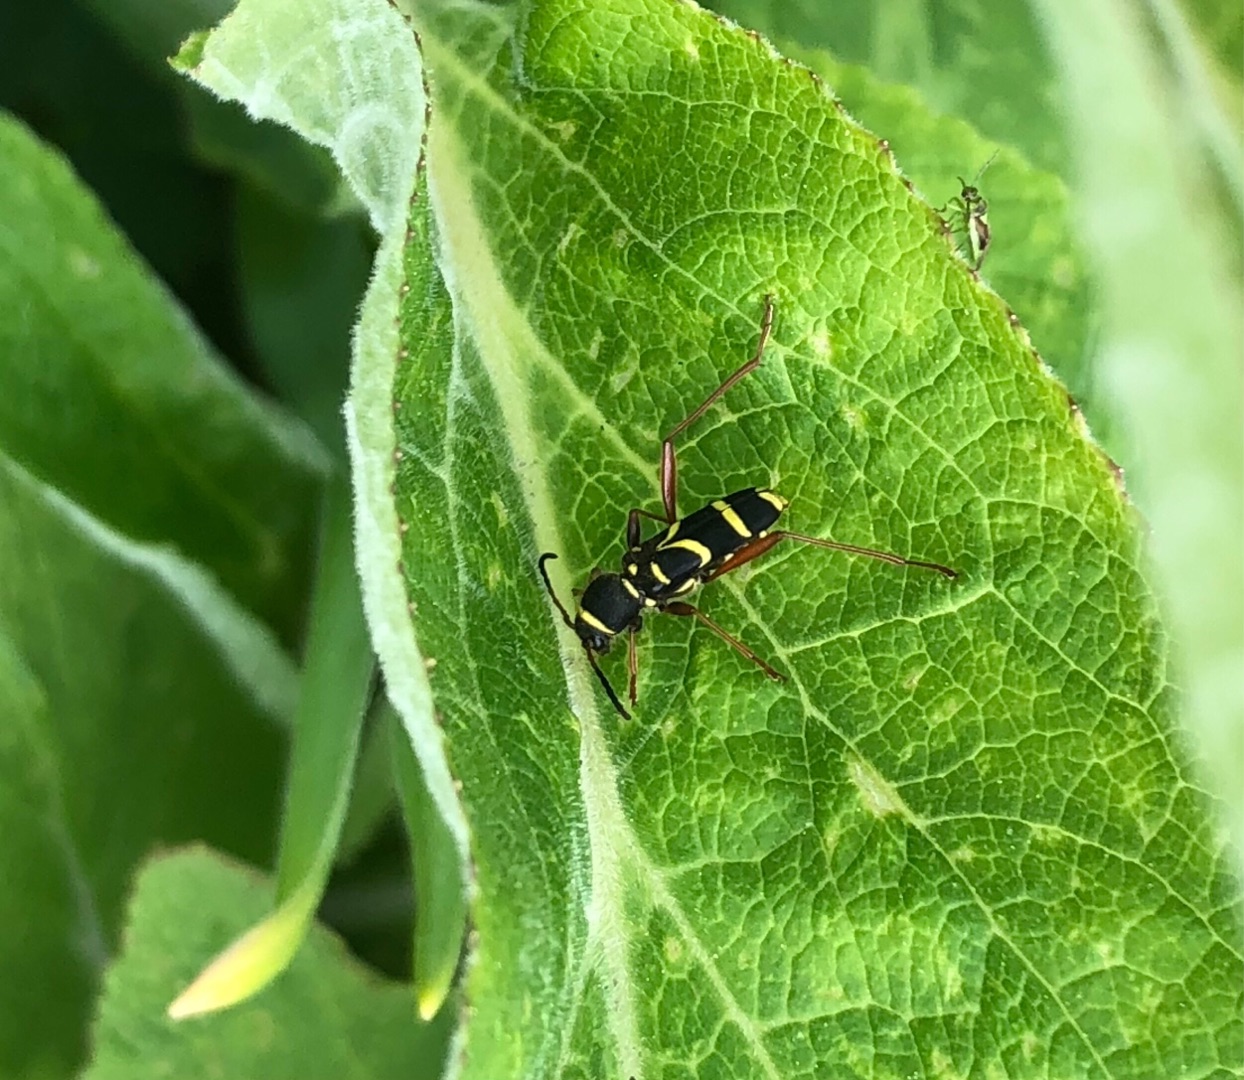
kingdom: Animalia
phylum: Arthropoda
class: Insecta
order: Coleoptera
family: Cerambycidae
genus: Clytus
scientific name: Clytus arietis
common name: Lille hvepsebuk
